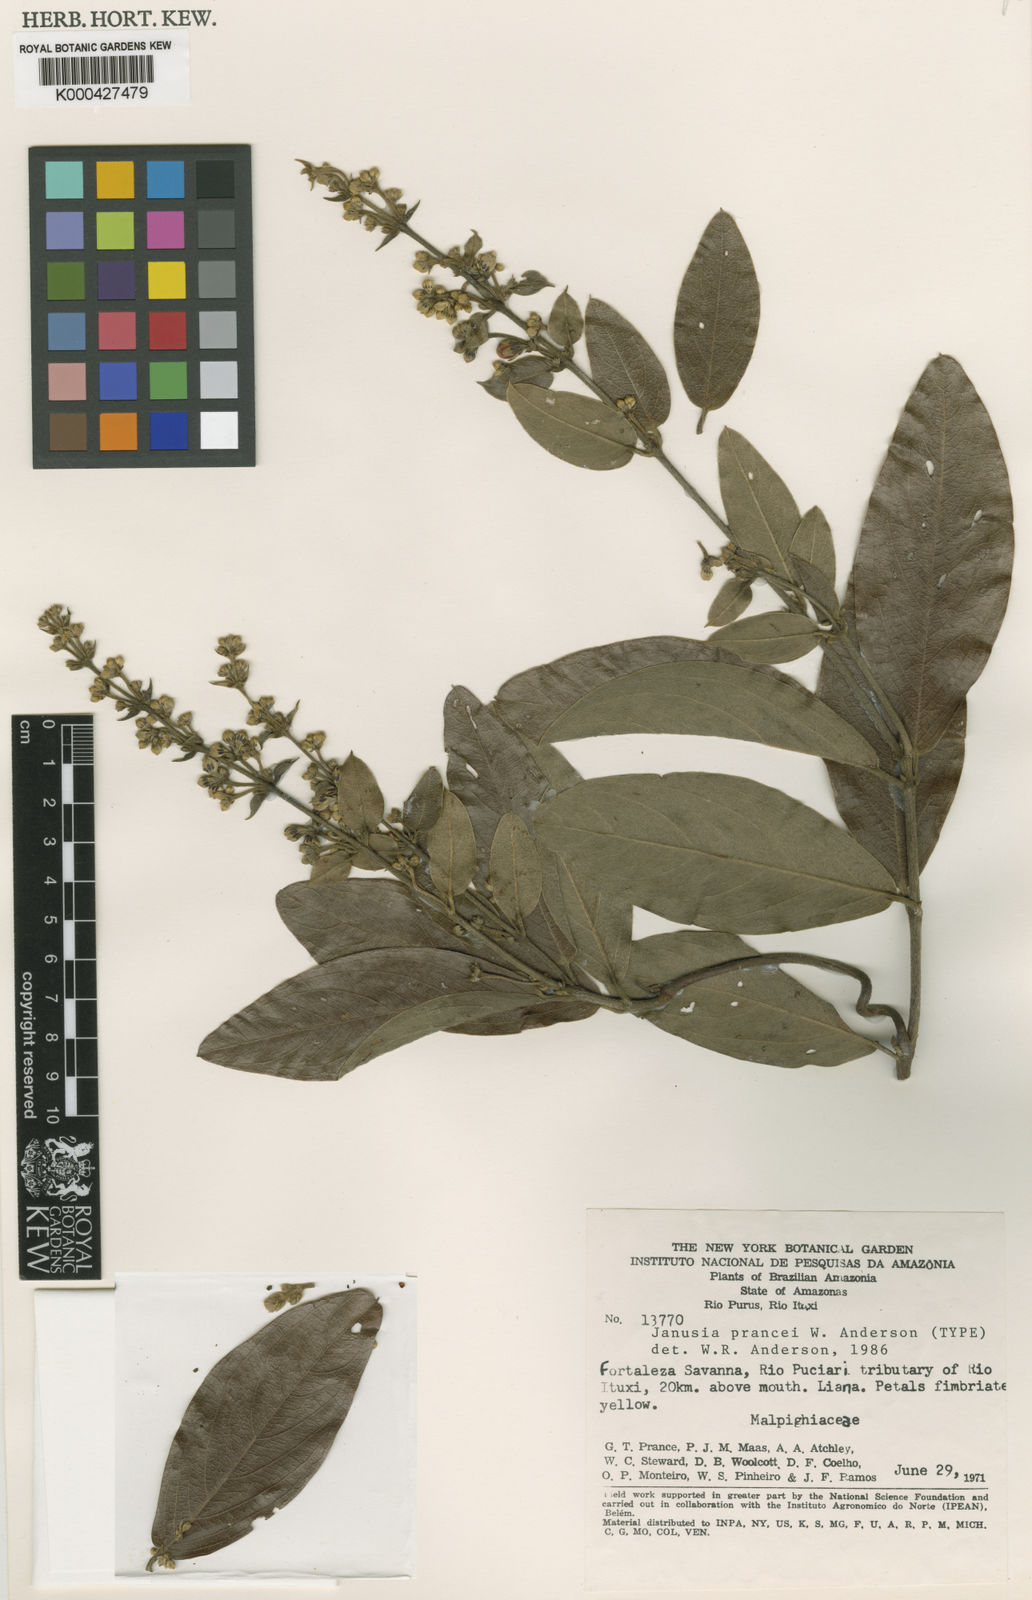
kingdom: Plantae
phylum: Tracheophyta
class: Magnoliopsida
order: Malpighiales
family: Malpighiaceae
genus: Janusia
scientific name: Janusia prancei
